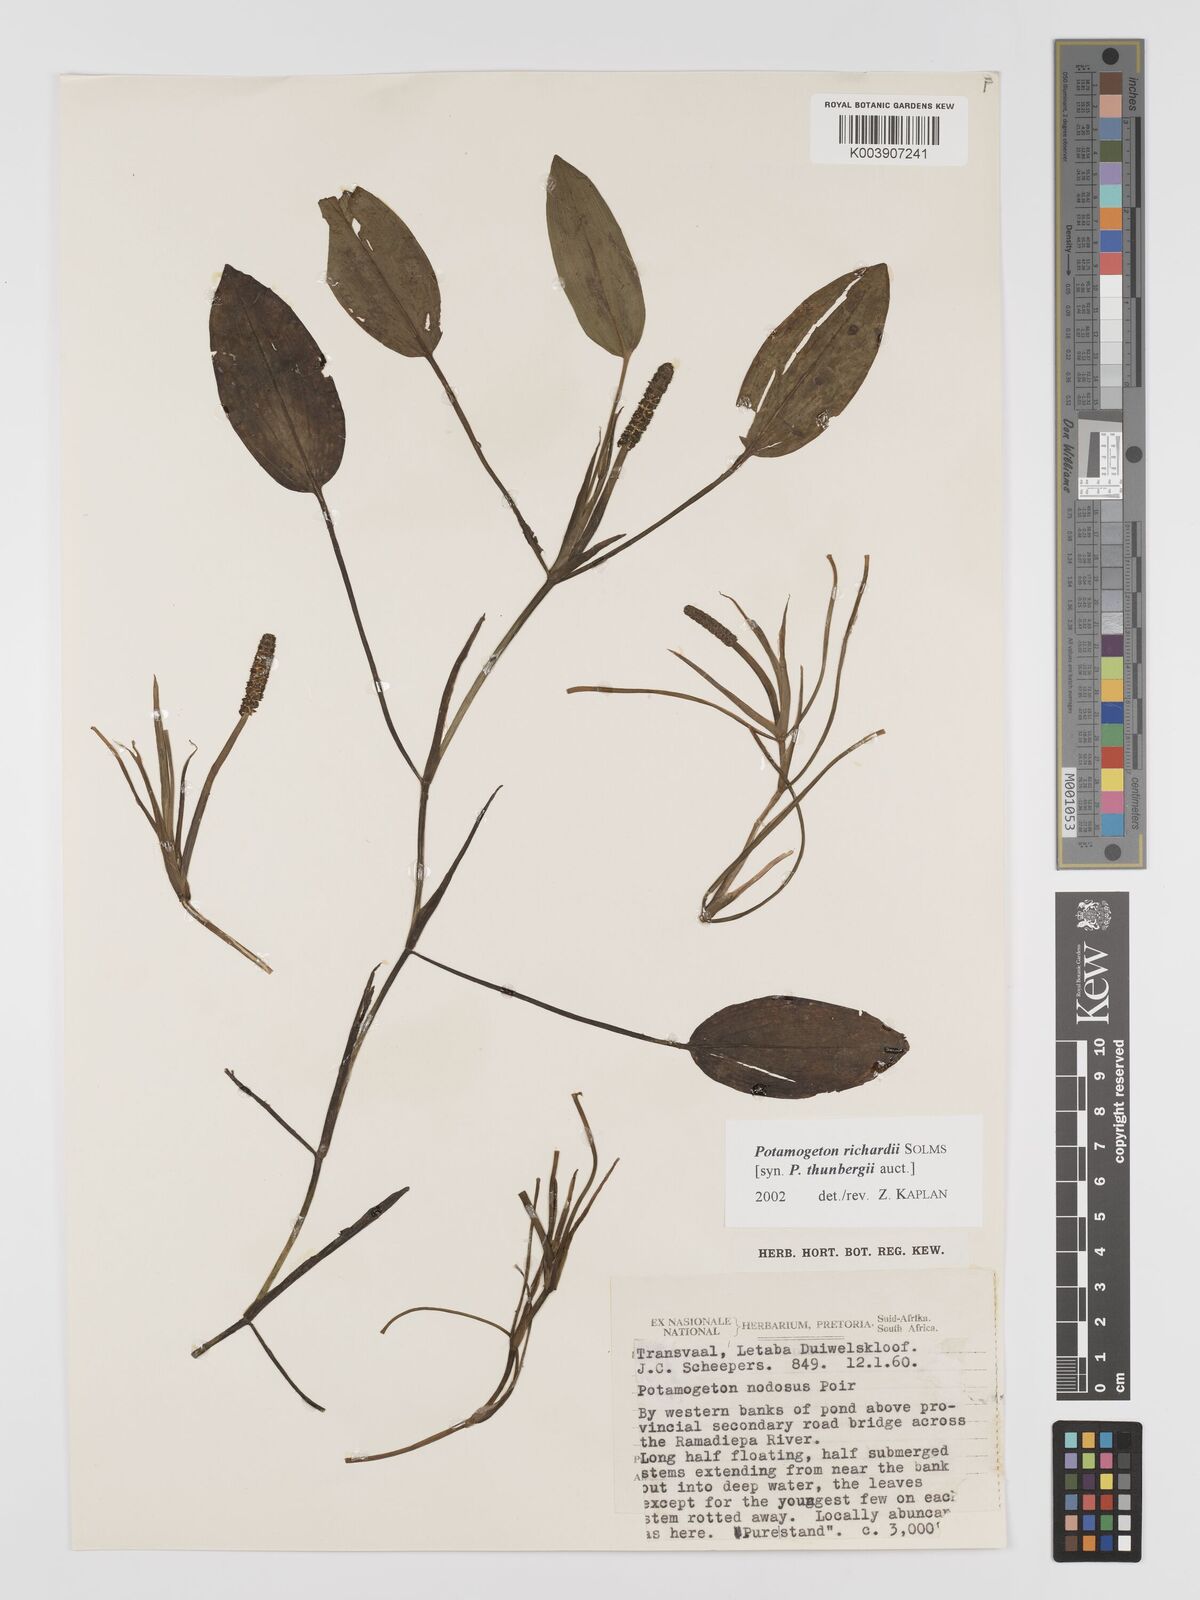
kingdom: Plantae
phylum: Tracheophyta
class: Liliopsida
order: Alismatales
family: Potamogetonaceae
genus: Potamogeton
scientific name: Potamogeton nodosus
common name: Loddon pondweed
